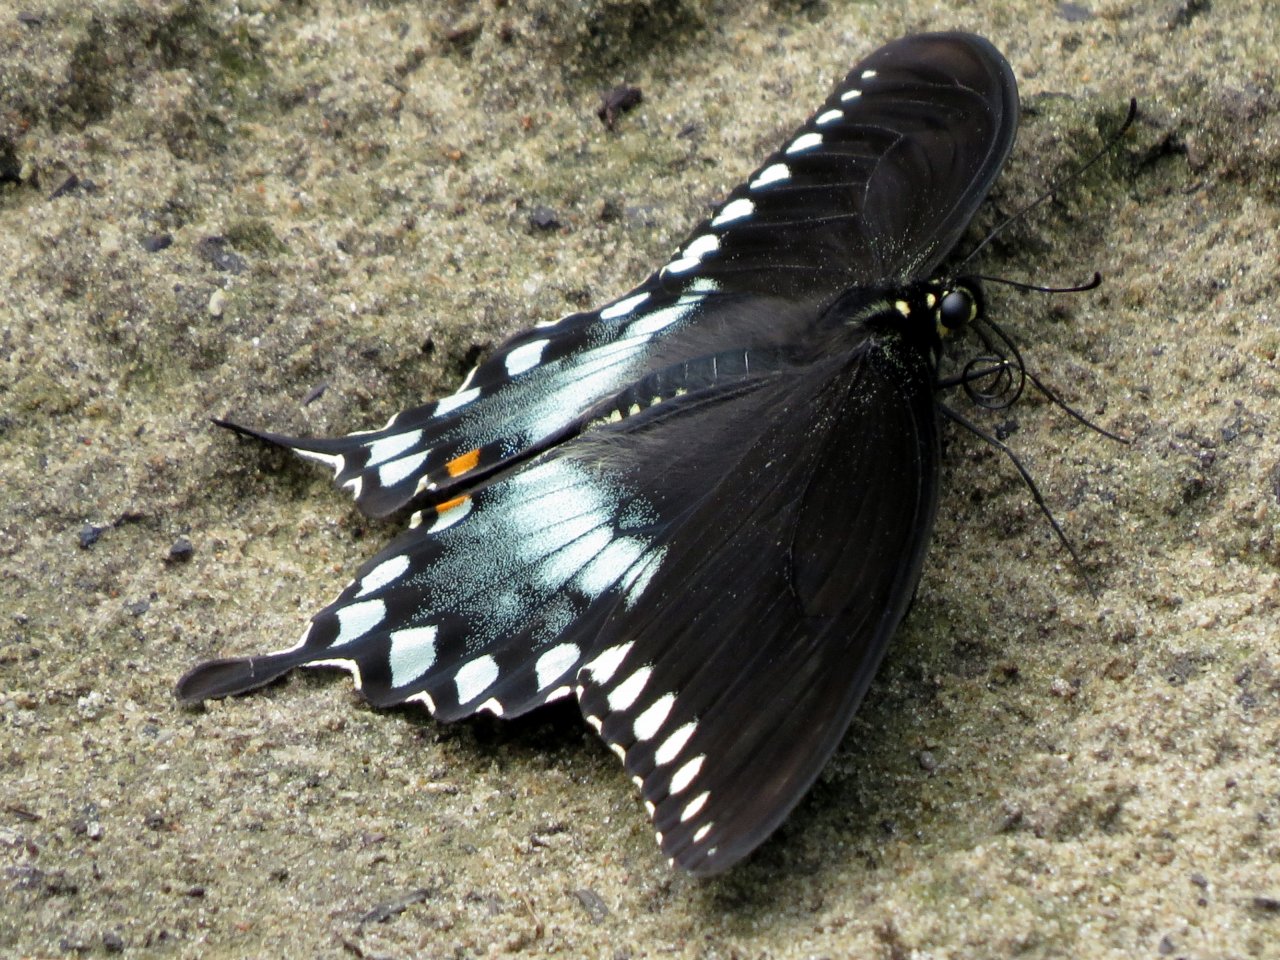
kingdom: Animalia
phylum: Arthropoda
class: Insecta
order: Lepidoptera
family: Papilionidae
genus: Pterourus
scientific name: Pterourus troilus
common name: Spicebush Swallowtail
